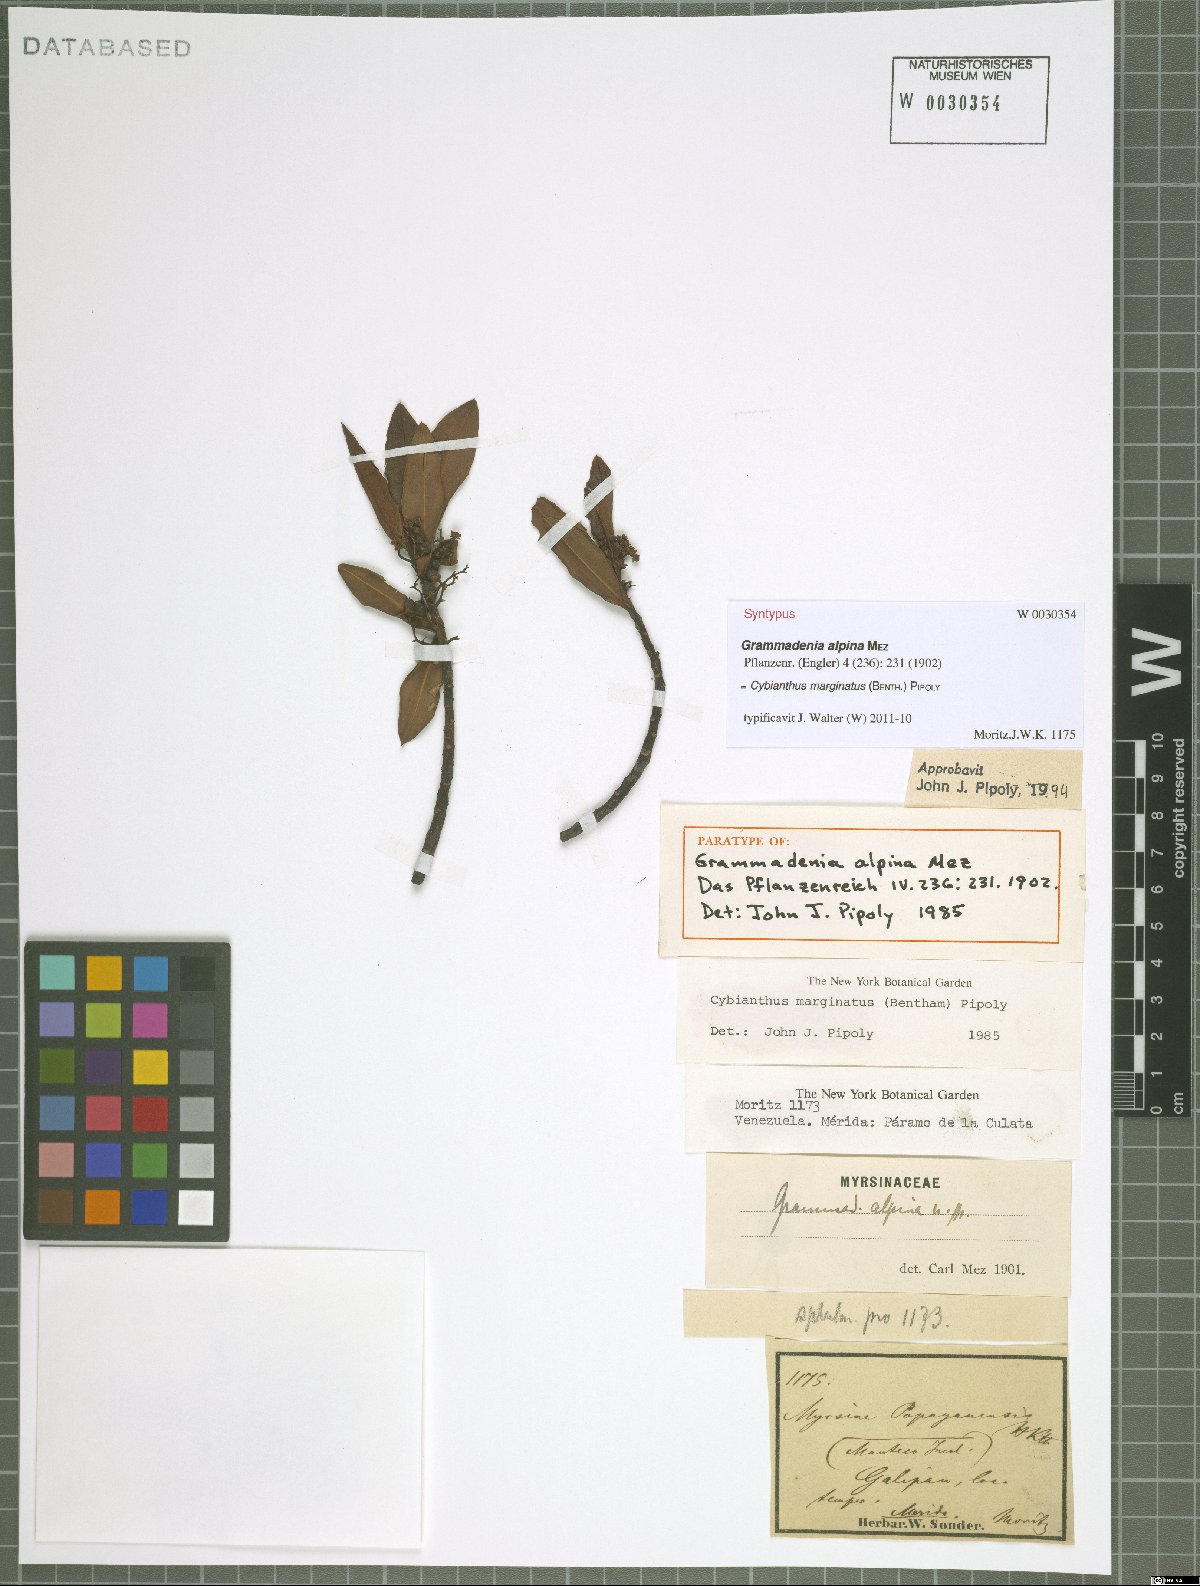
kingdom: Plantae
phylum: Tracheophyta
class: Magnoliopsida
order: Ericales
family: Primulaceae
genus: Cybianthus
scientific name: Cybianthus marginatus
